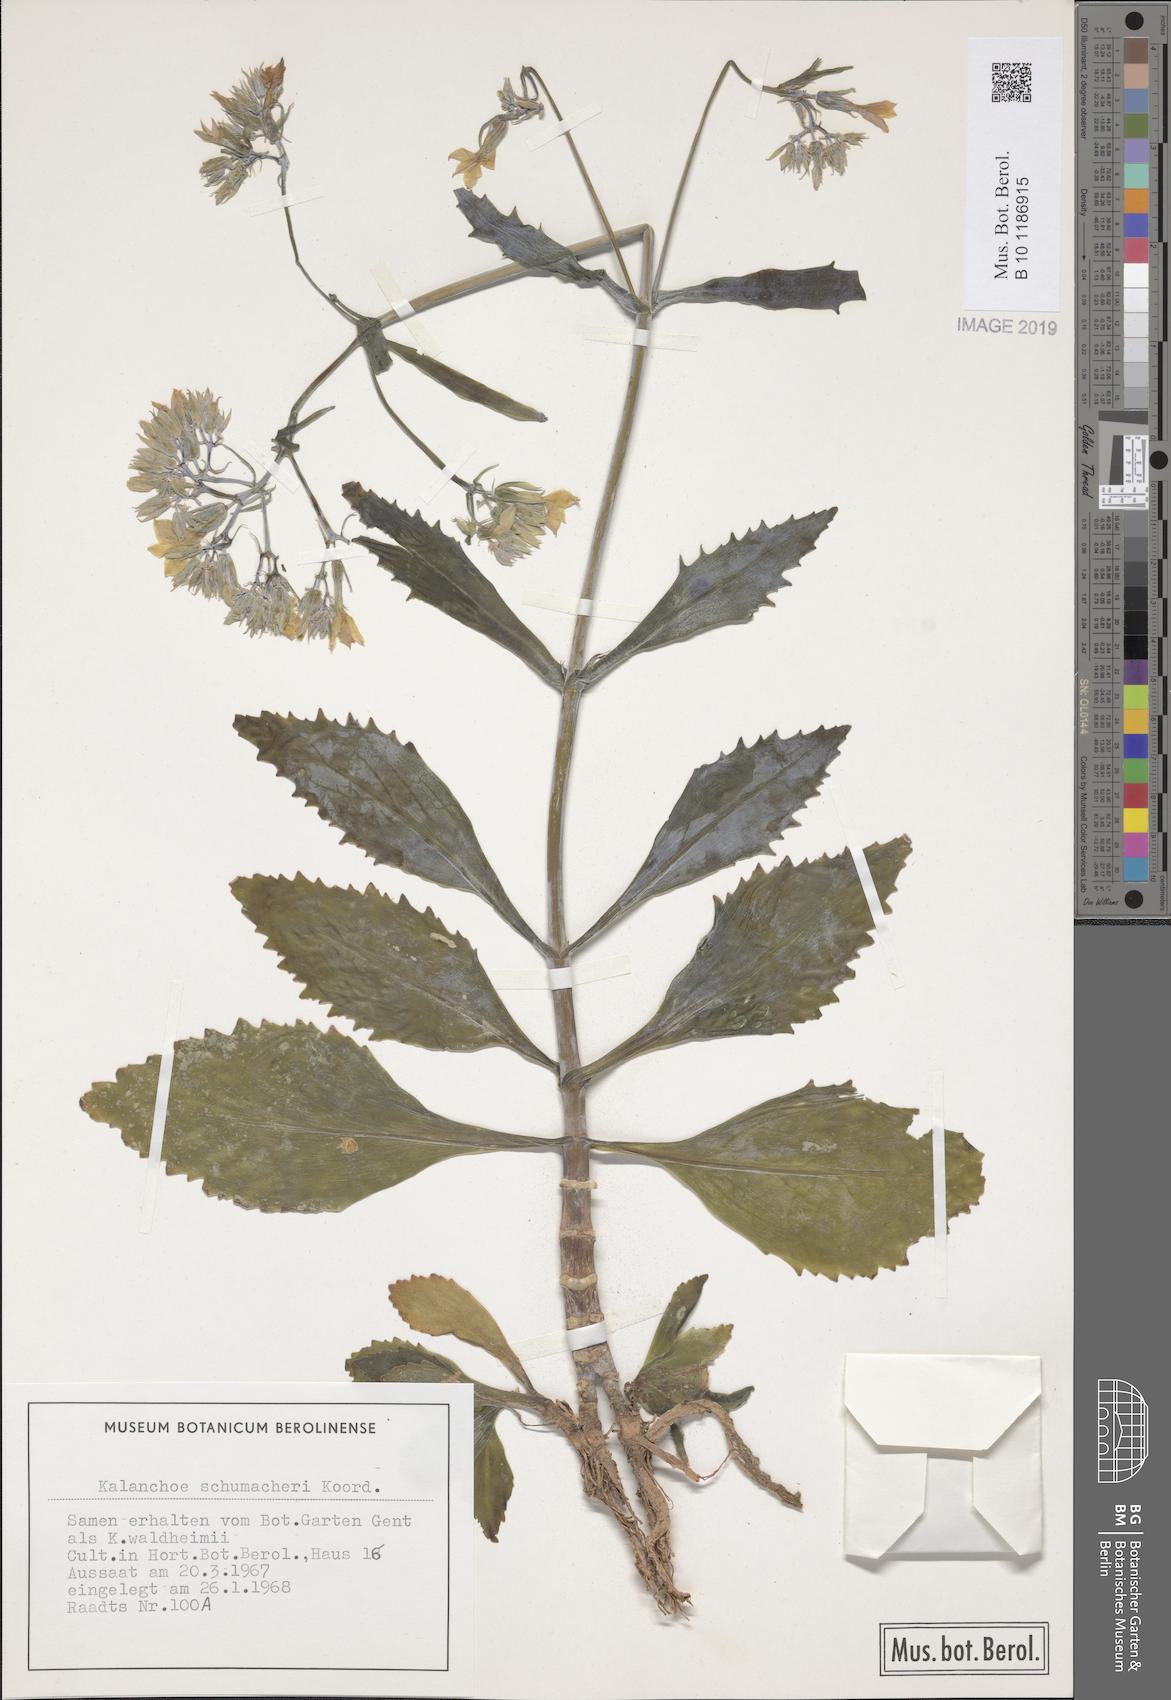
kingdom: Plantae
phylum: Tracheophyta
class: Magnoliopsida
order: Saxifragales
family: Crassulaceae
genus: Kalanchoe
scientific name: Kalanchoe integra
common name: Neverdie
